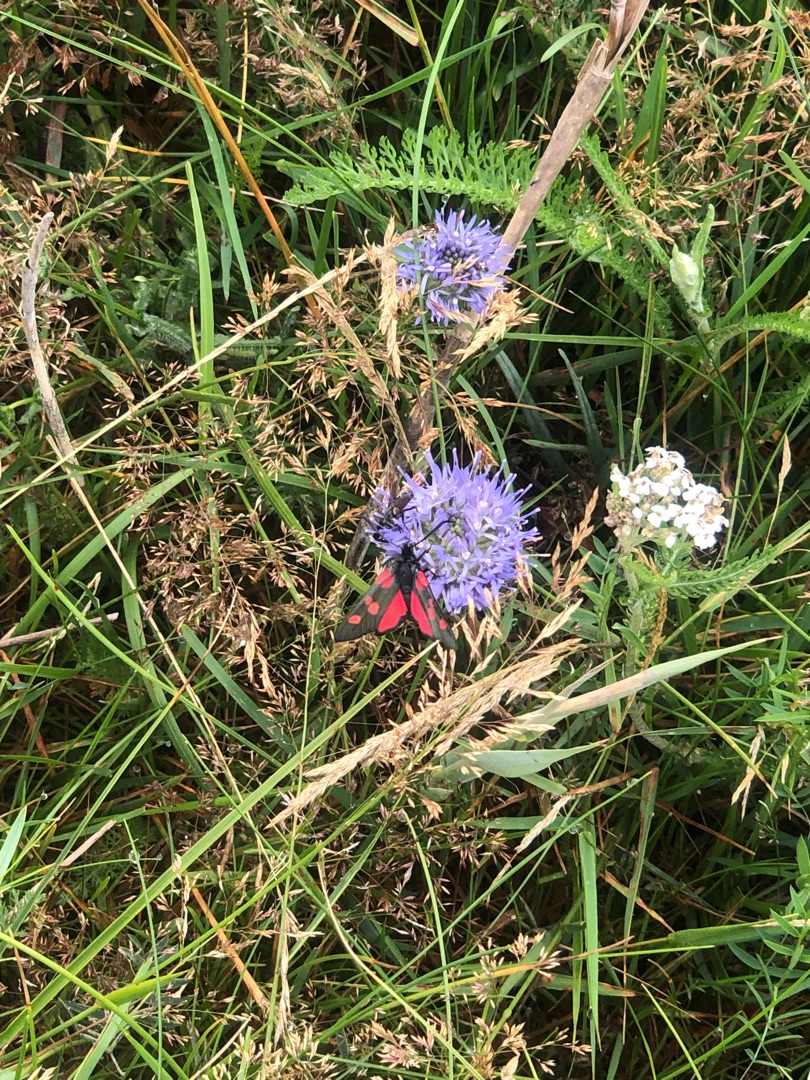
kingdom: Animalia
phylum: Arthropoda
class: Insecta
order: Lepidoptera
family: Zygaenidae
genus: Zygaena
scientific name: Zygaena lonicerae
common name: Femplettet køllesværmer
